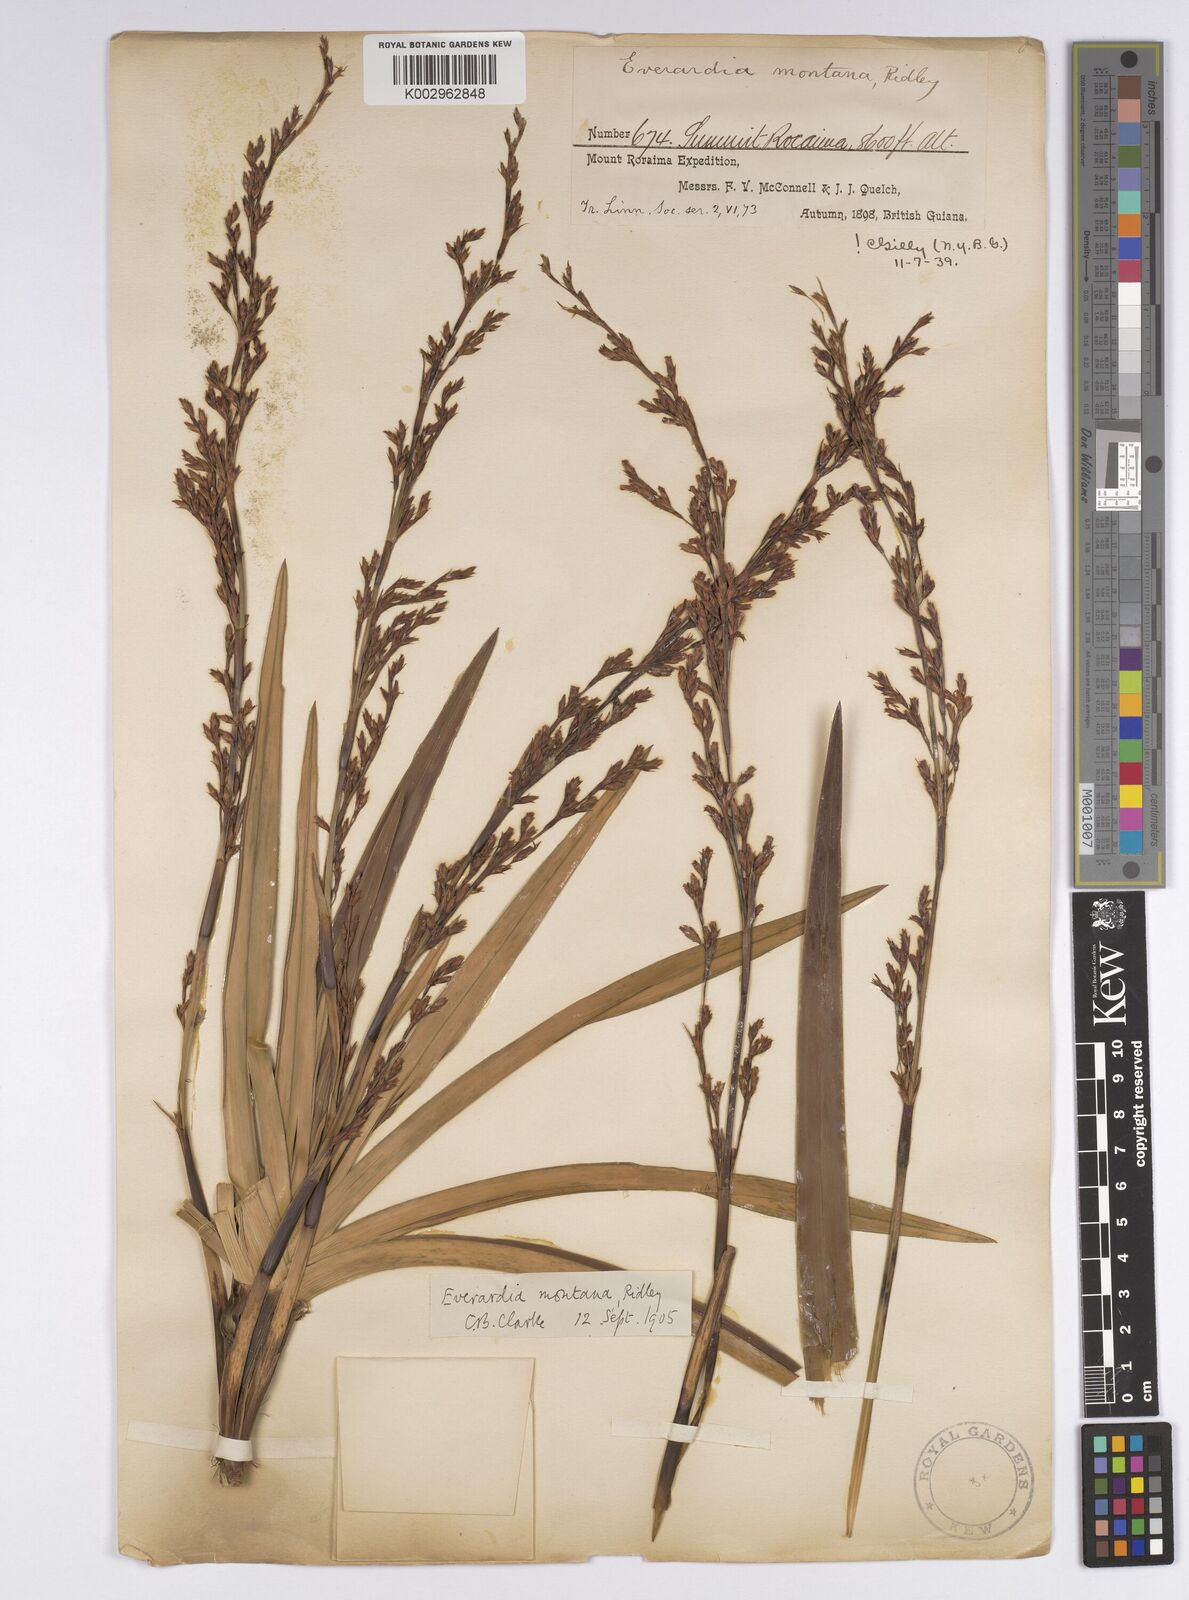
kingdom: Plantae
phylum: Tracheophyta
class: Liliopsida
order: Poales
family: Cyperaceae
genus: Cephalocarpus
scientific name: Cephalocarpus montanus
